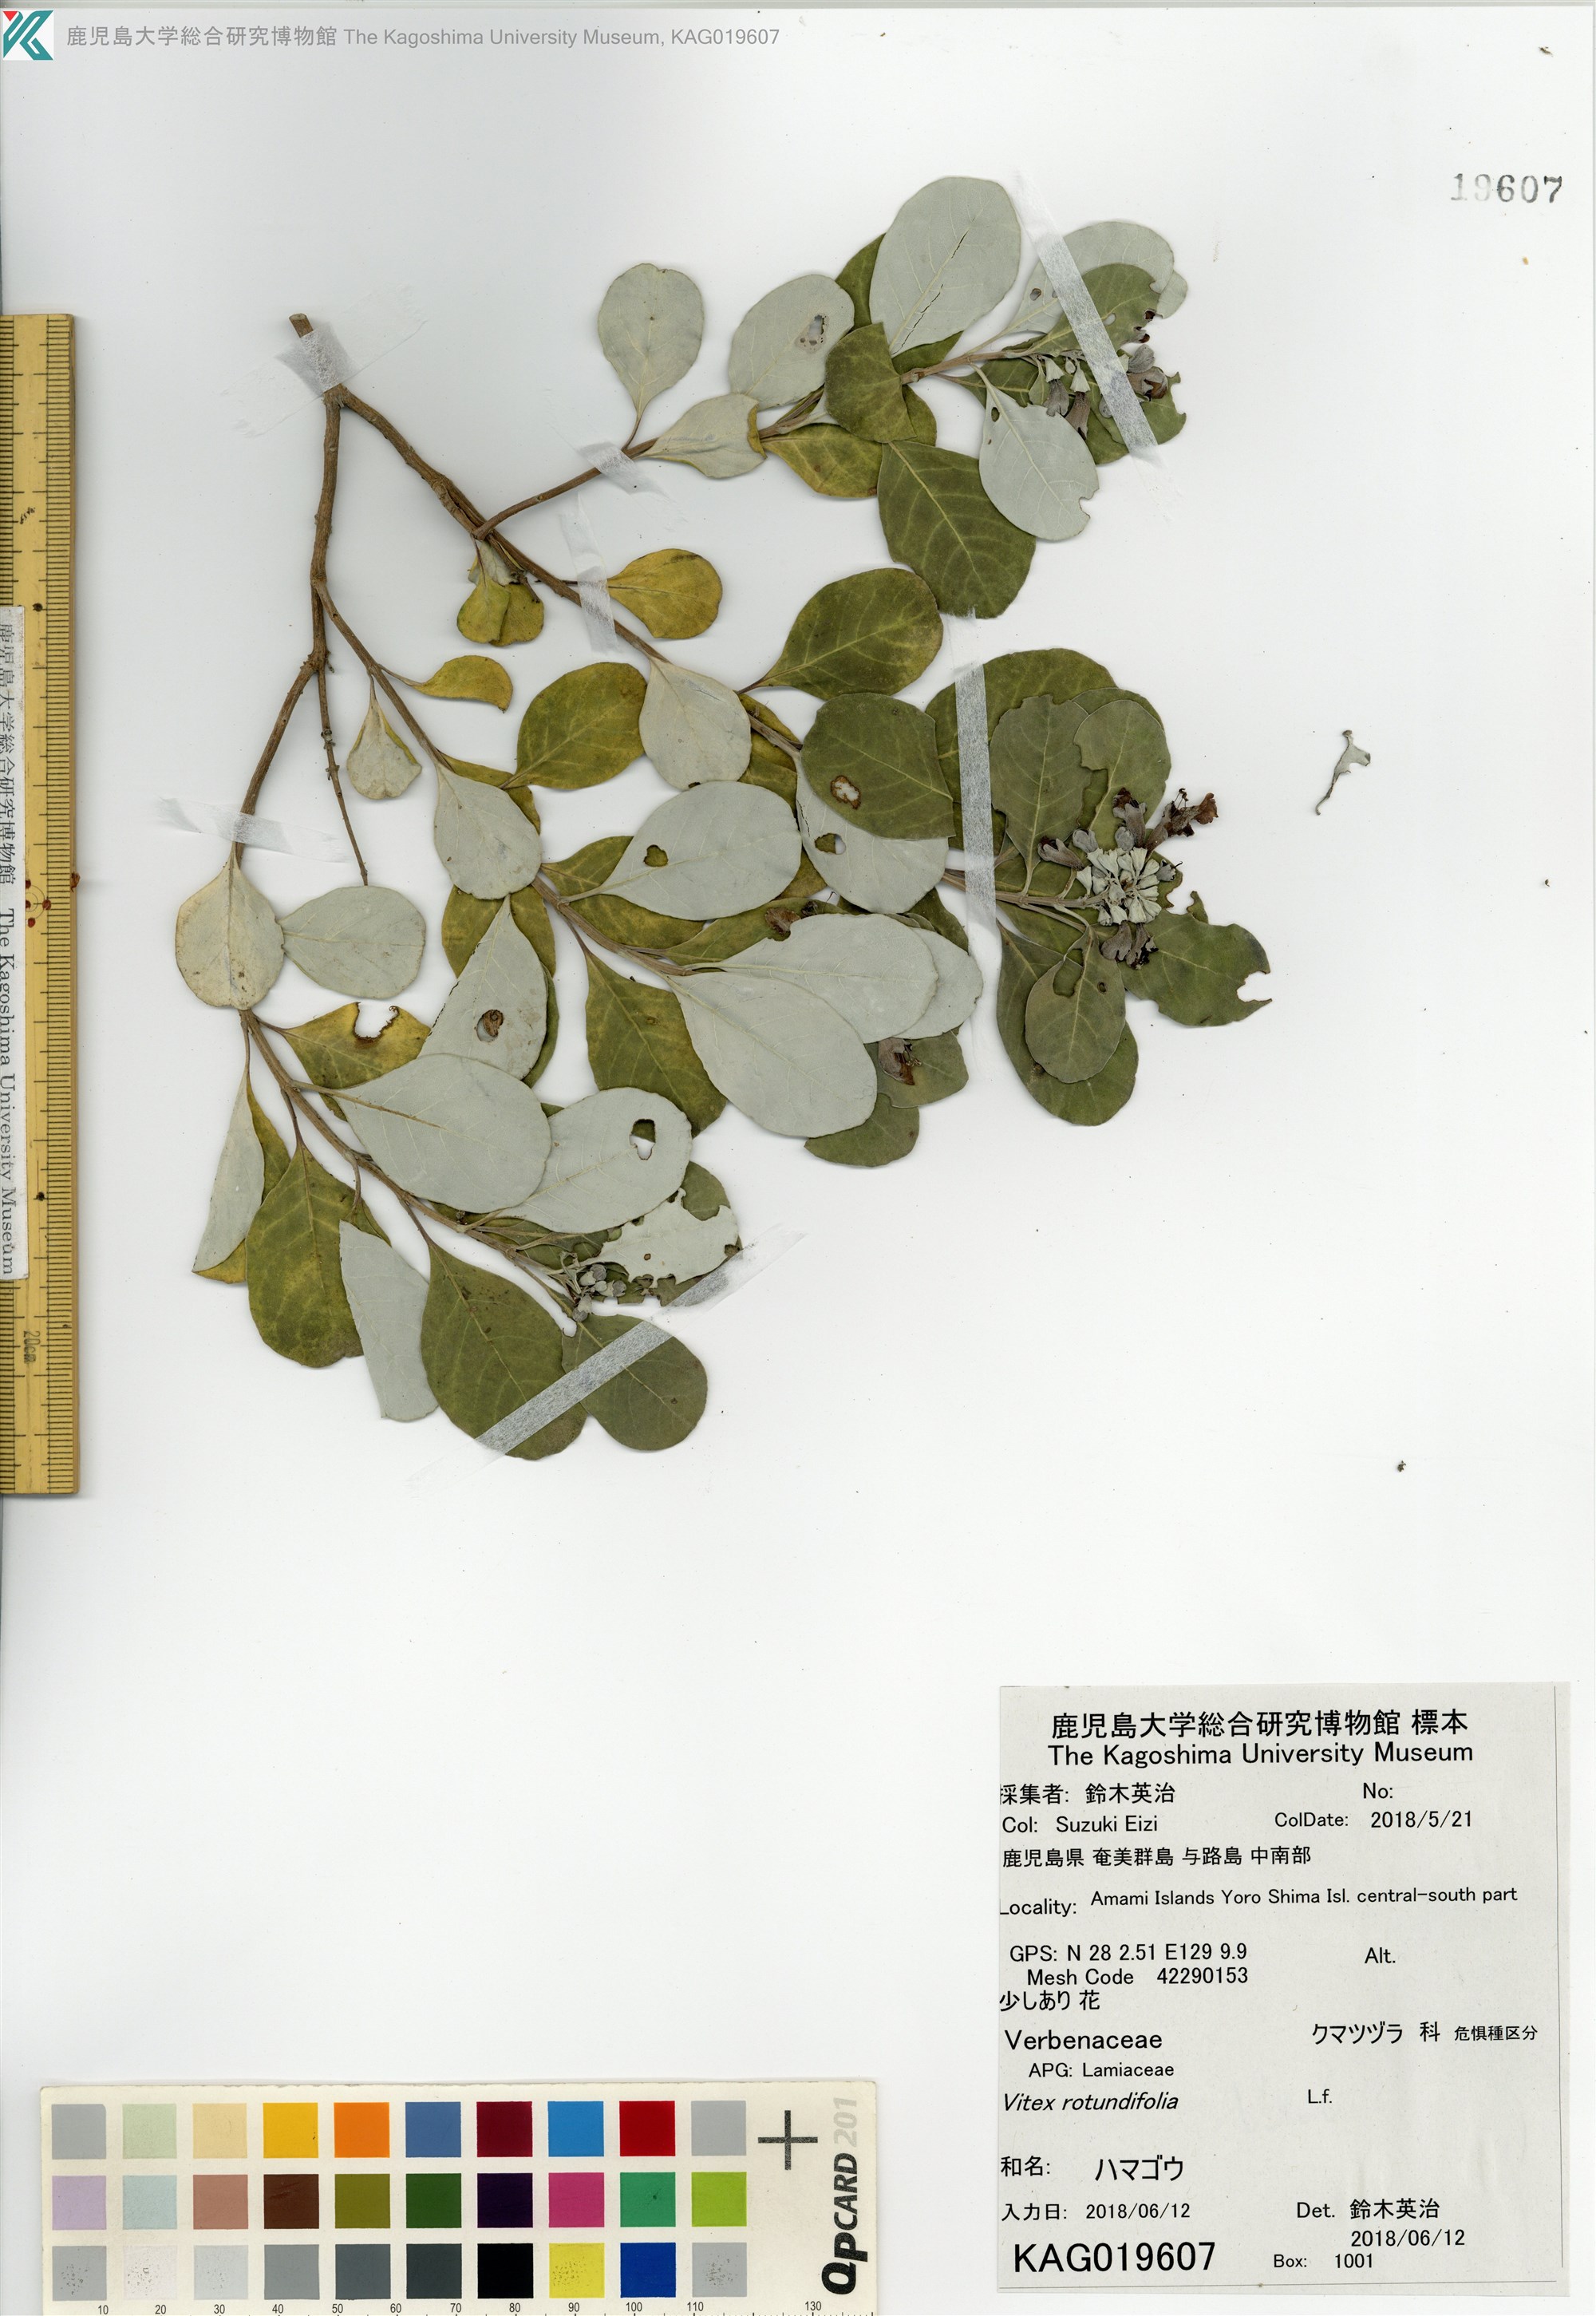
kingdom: Plantae
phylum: Tracheophyta
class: Magnoliopsida
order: Lamiales
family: Lamiaceae
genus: Vitex
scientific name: Vitex rotundifolia
